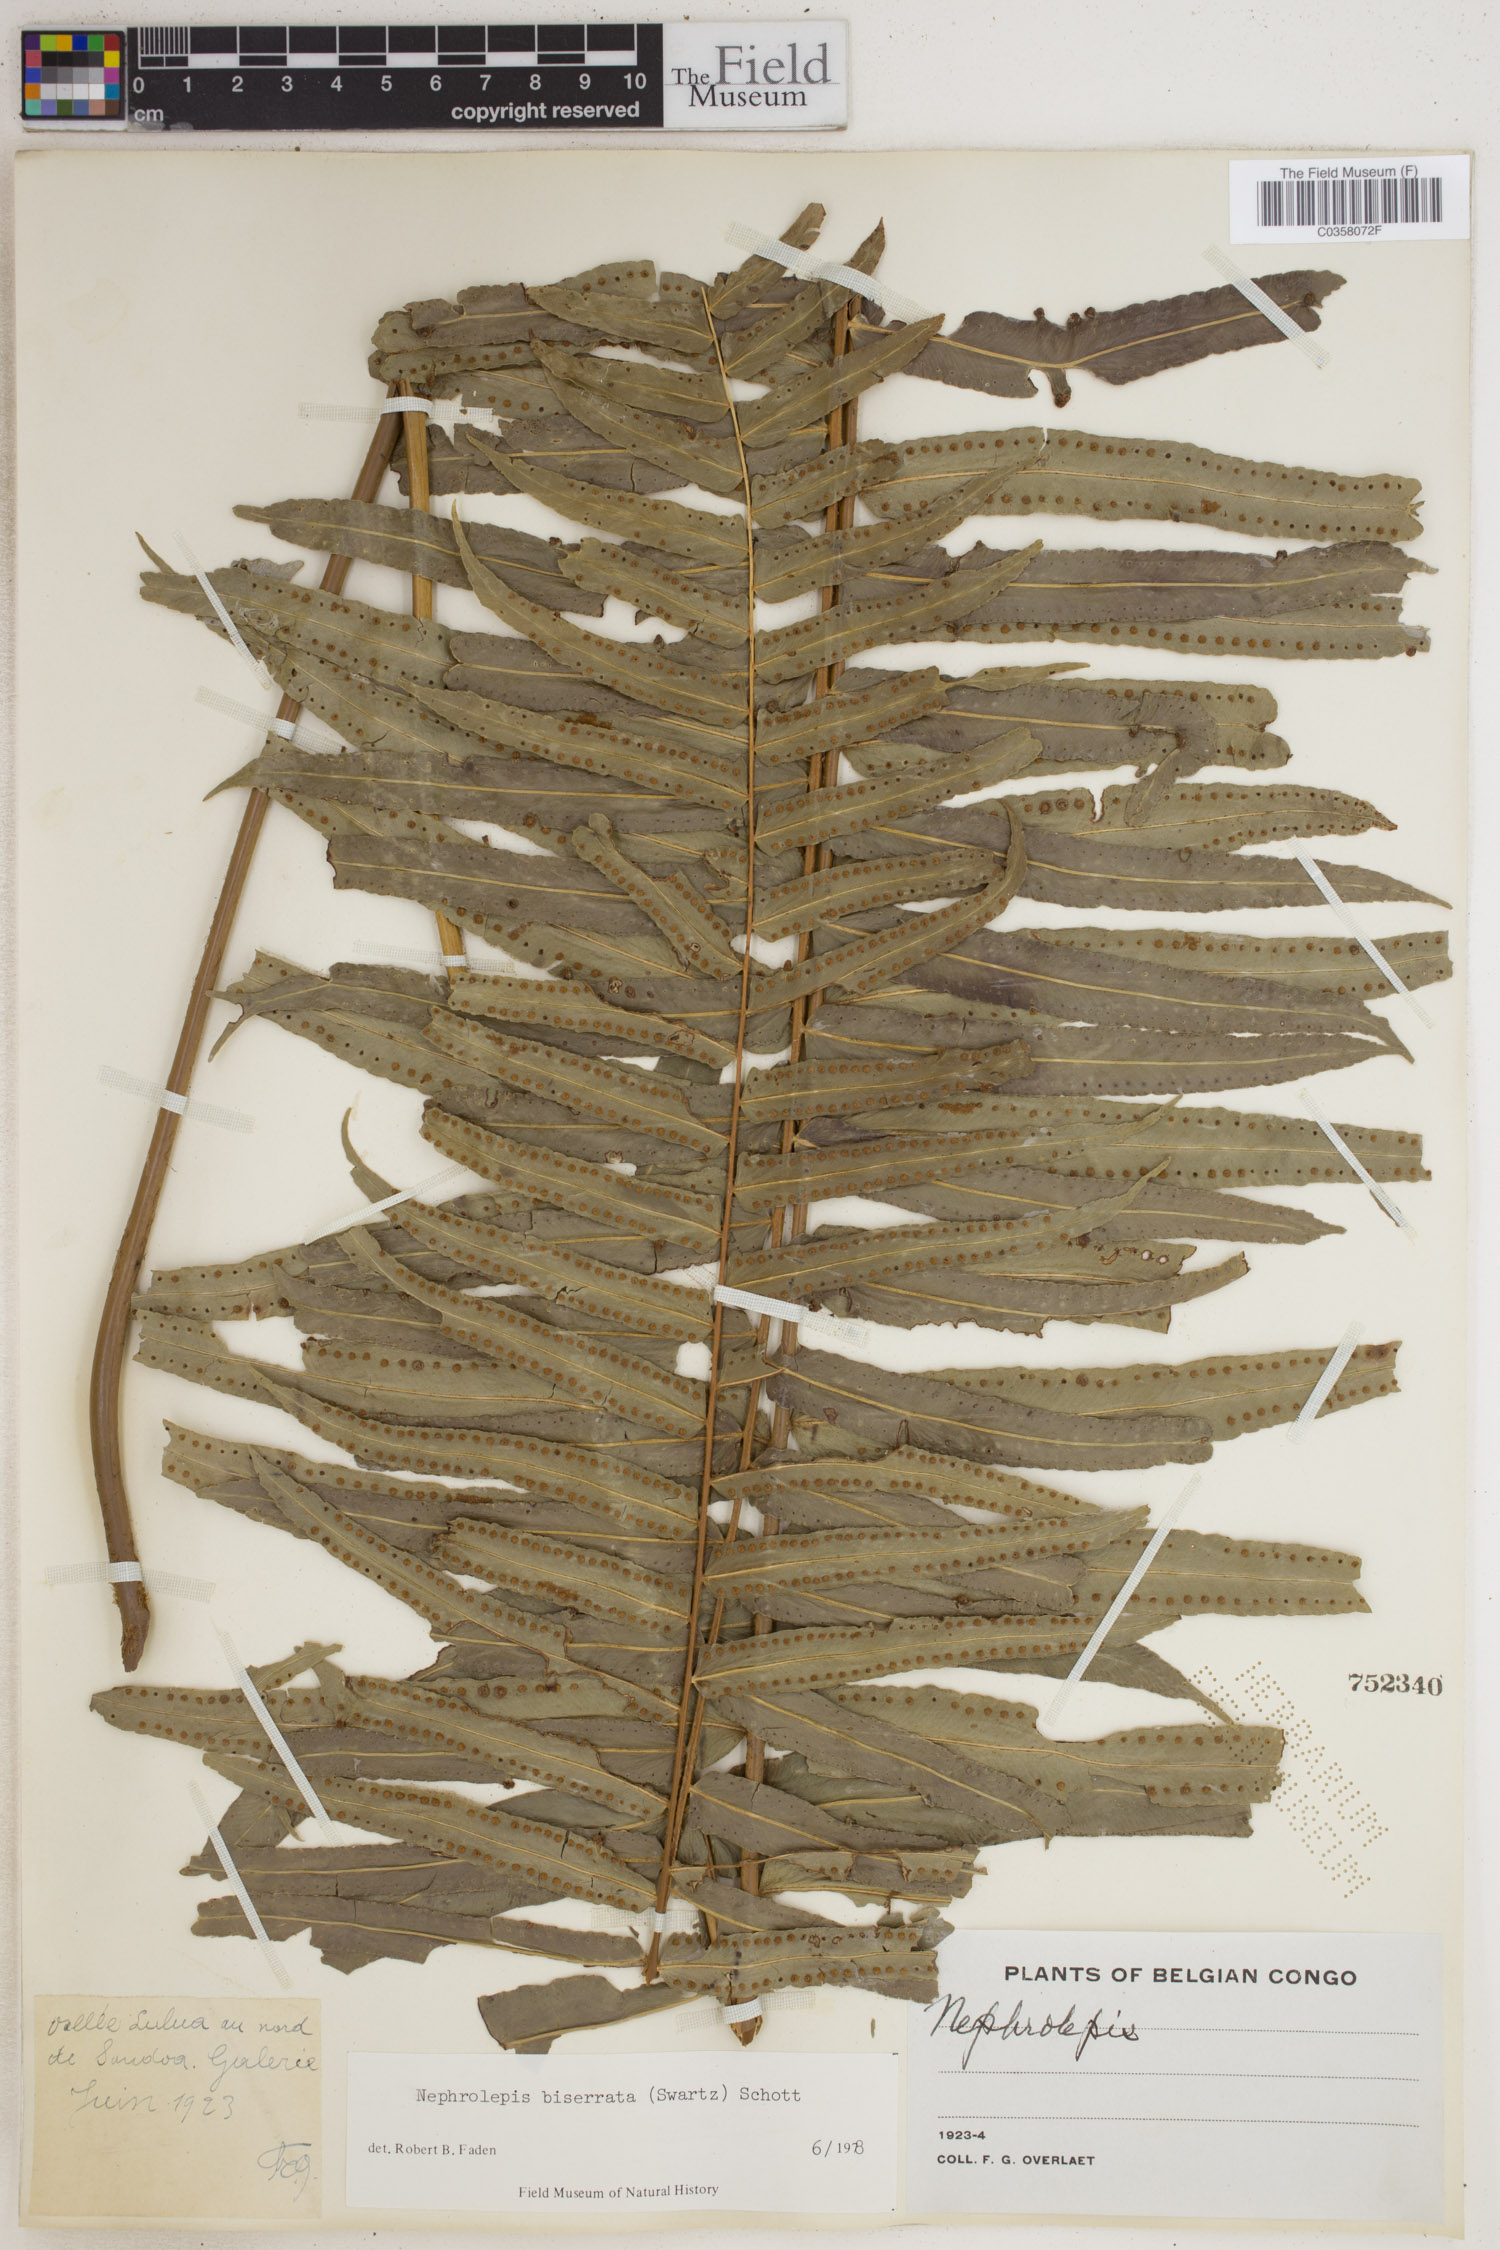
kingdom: Plantae
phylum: Tracheophyta
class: Polypodiopsida
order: Polypodiales
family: Nephrolepidaceae
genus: Nephrolepis
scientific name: Nephrolepis biserrata
